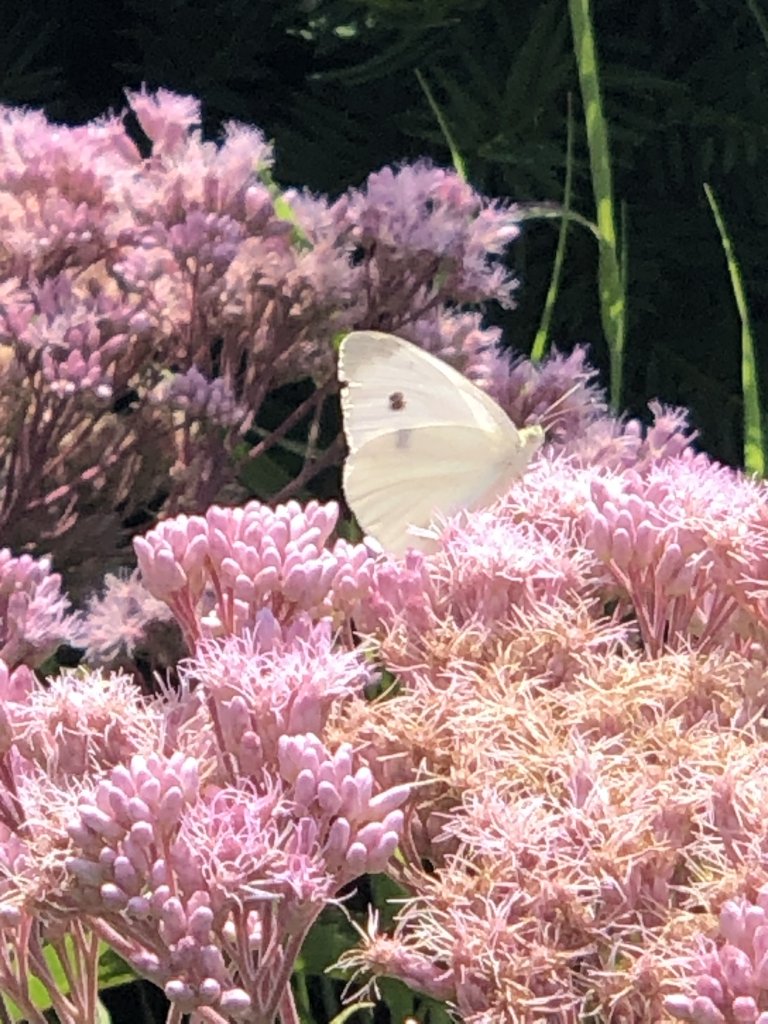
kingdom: Animalia
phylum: Arthropoda
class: Insecta
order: Lepidoptera
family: Pieridae
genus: Pieris
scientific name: Pieris rapae
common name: Cabbage White
